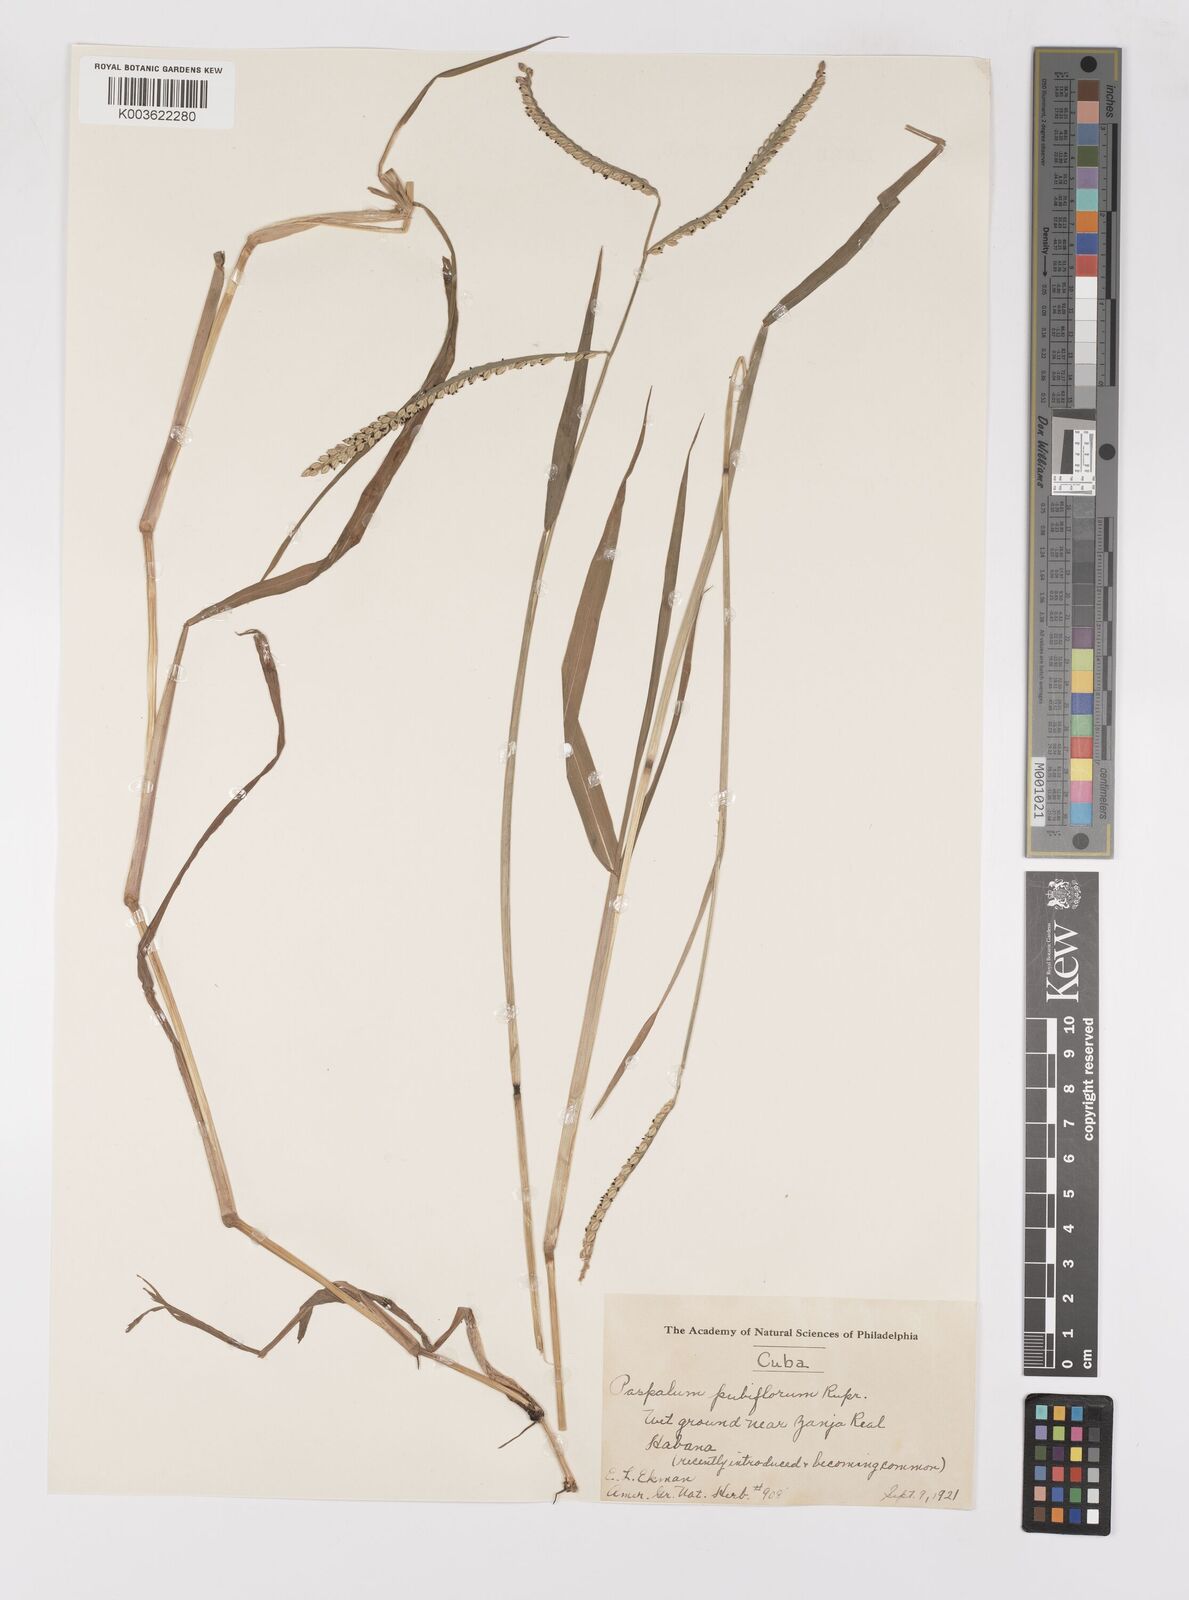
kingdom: Plantae
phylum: Tracheophyta
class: Liliopsida
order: Poales
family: Poaceae
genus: Paspalum
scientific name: Paspalum pubiflorum
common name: Hairy-seed paspalum
